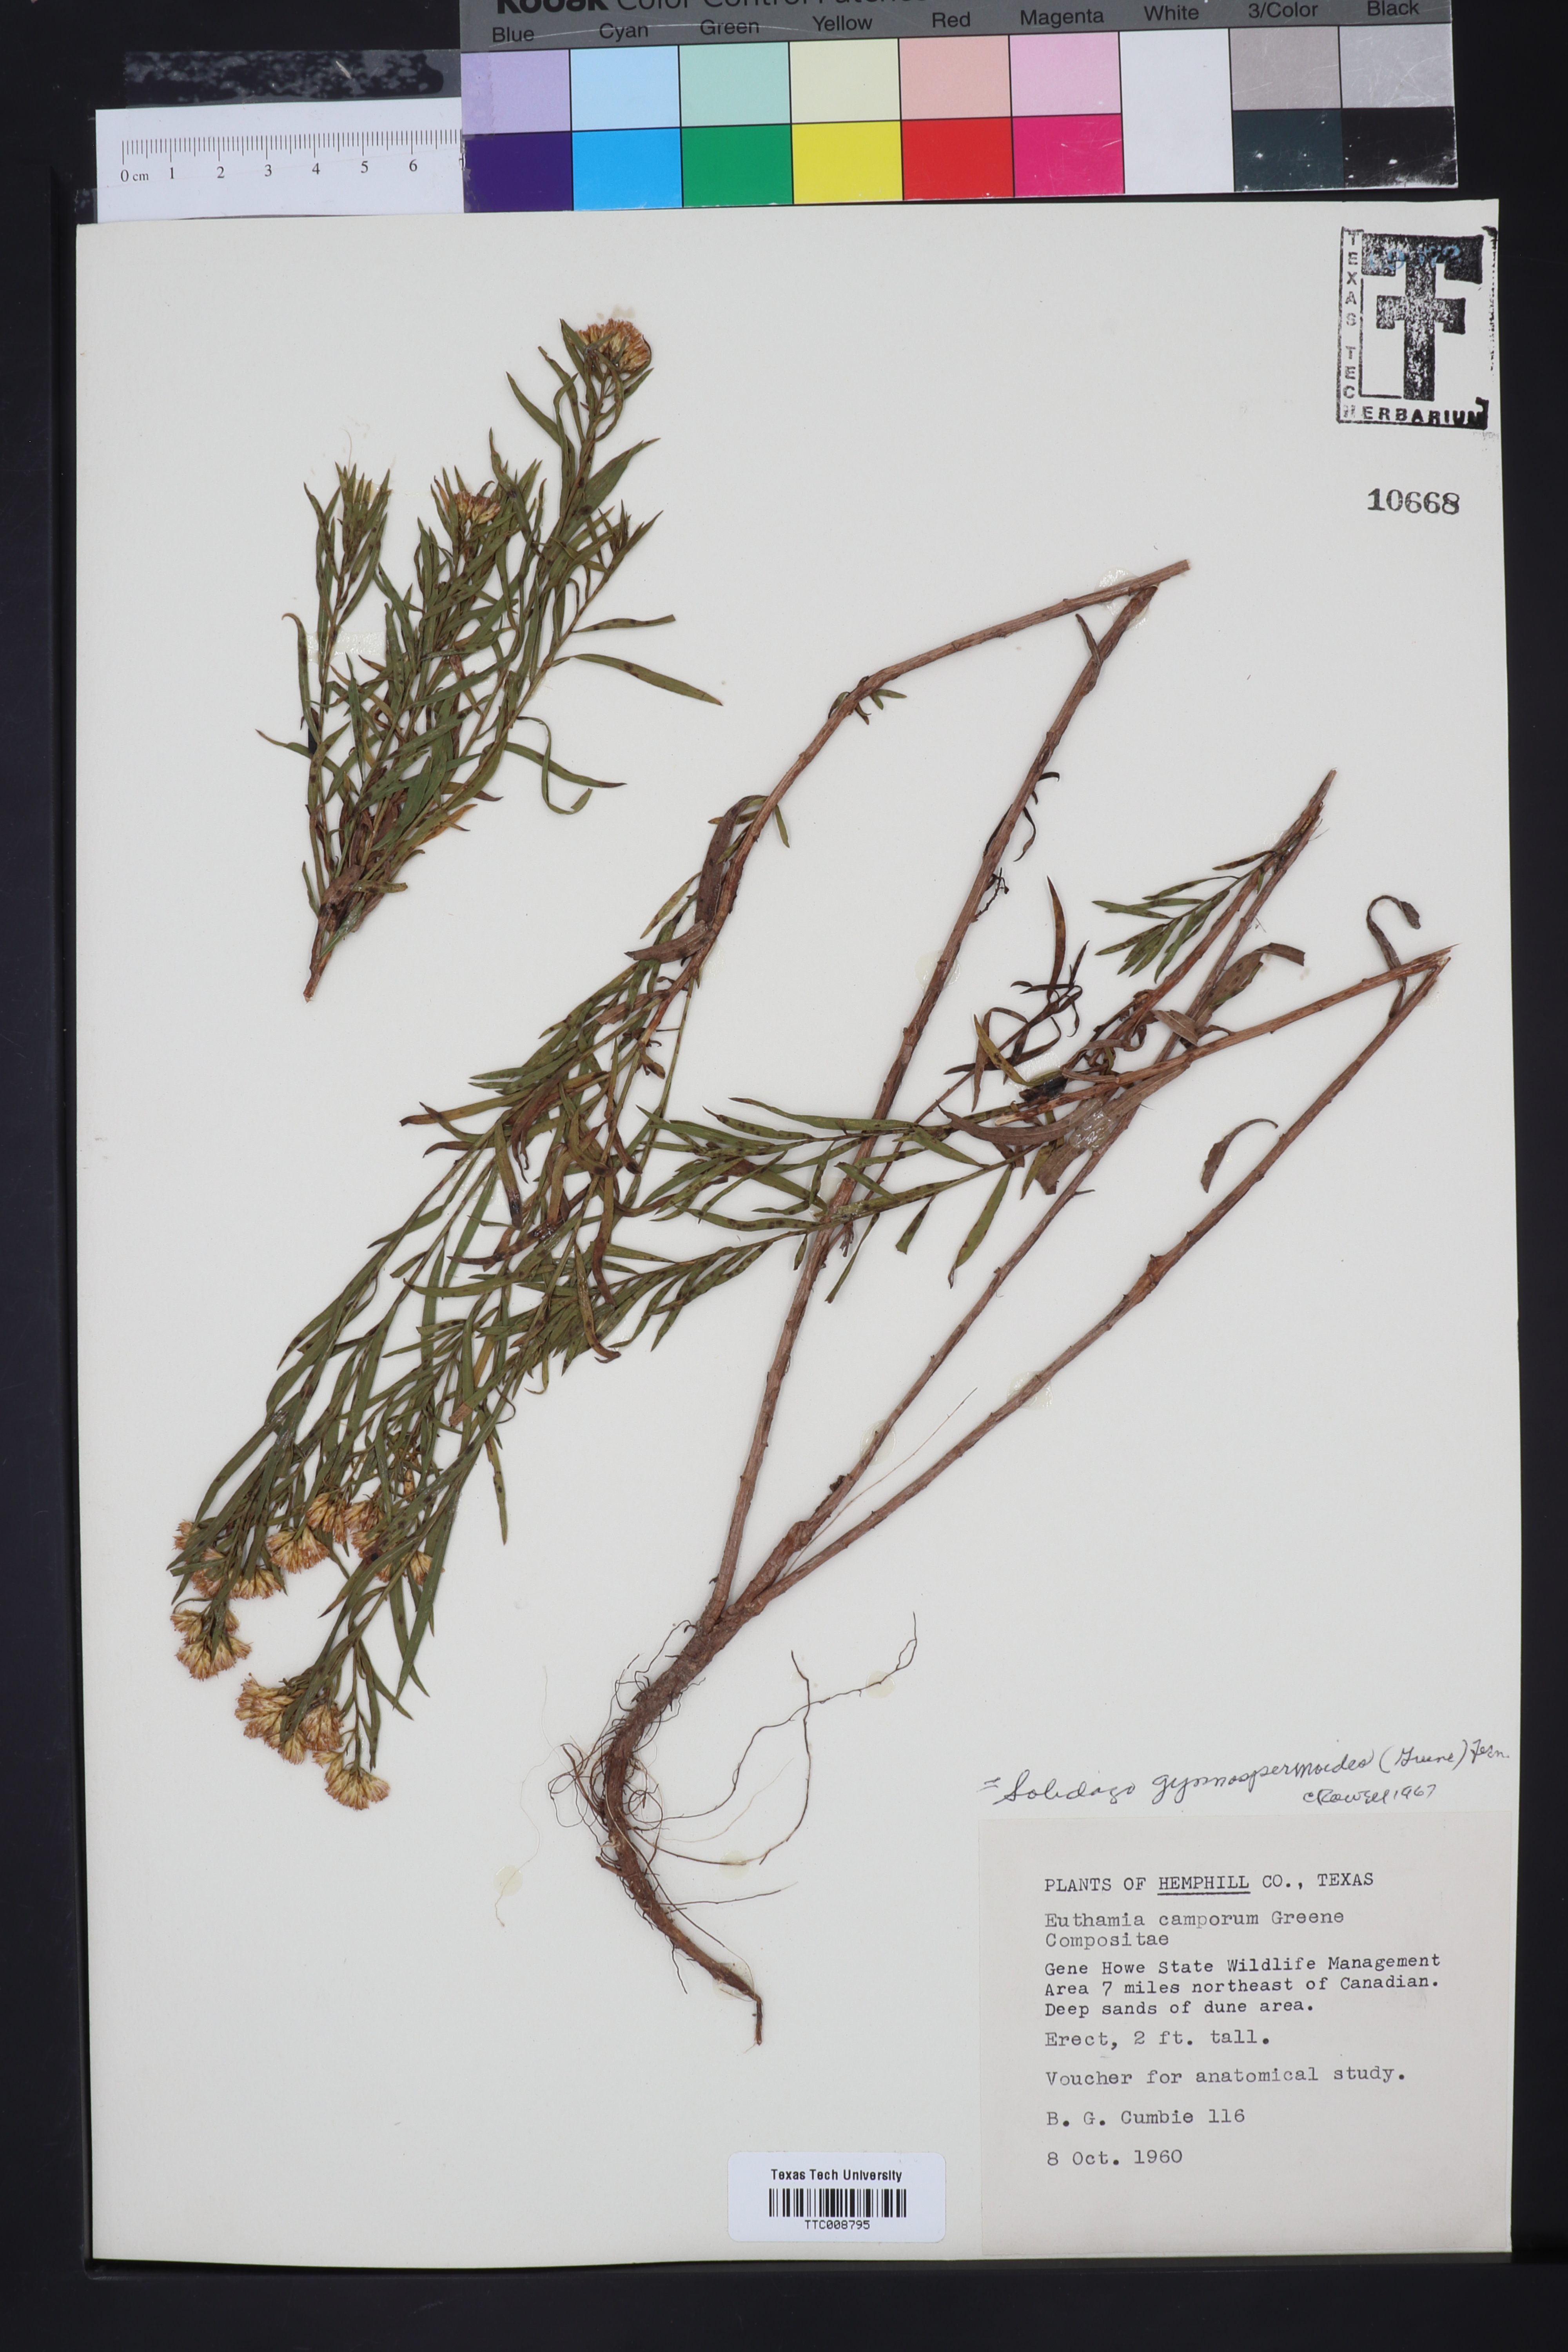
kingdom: Plantae
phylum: Tracheophyta
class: Magnoliopsida
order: Asterales
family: Asteraceae
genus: Euthamia
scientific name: Euthamia gymnospermoides
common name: Great plains goldentop
